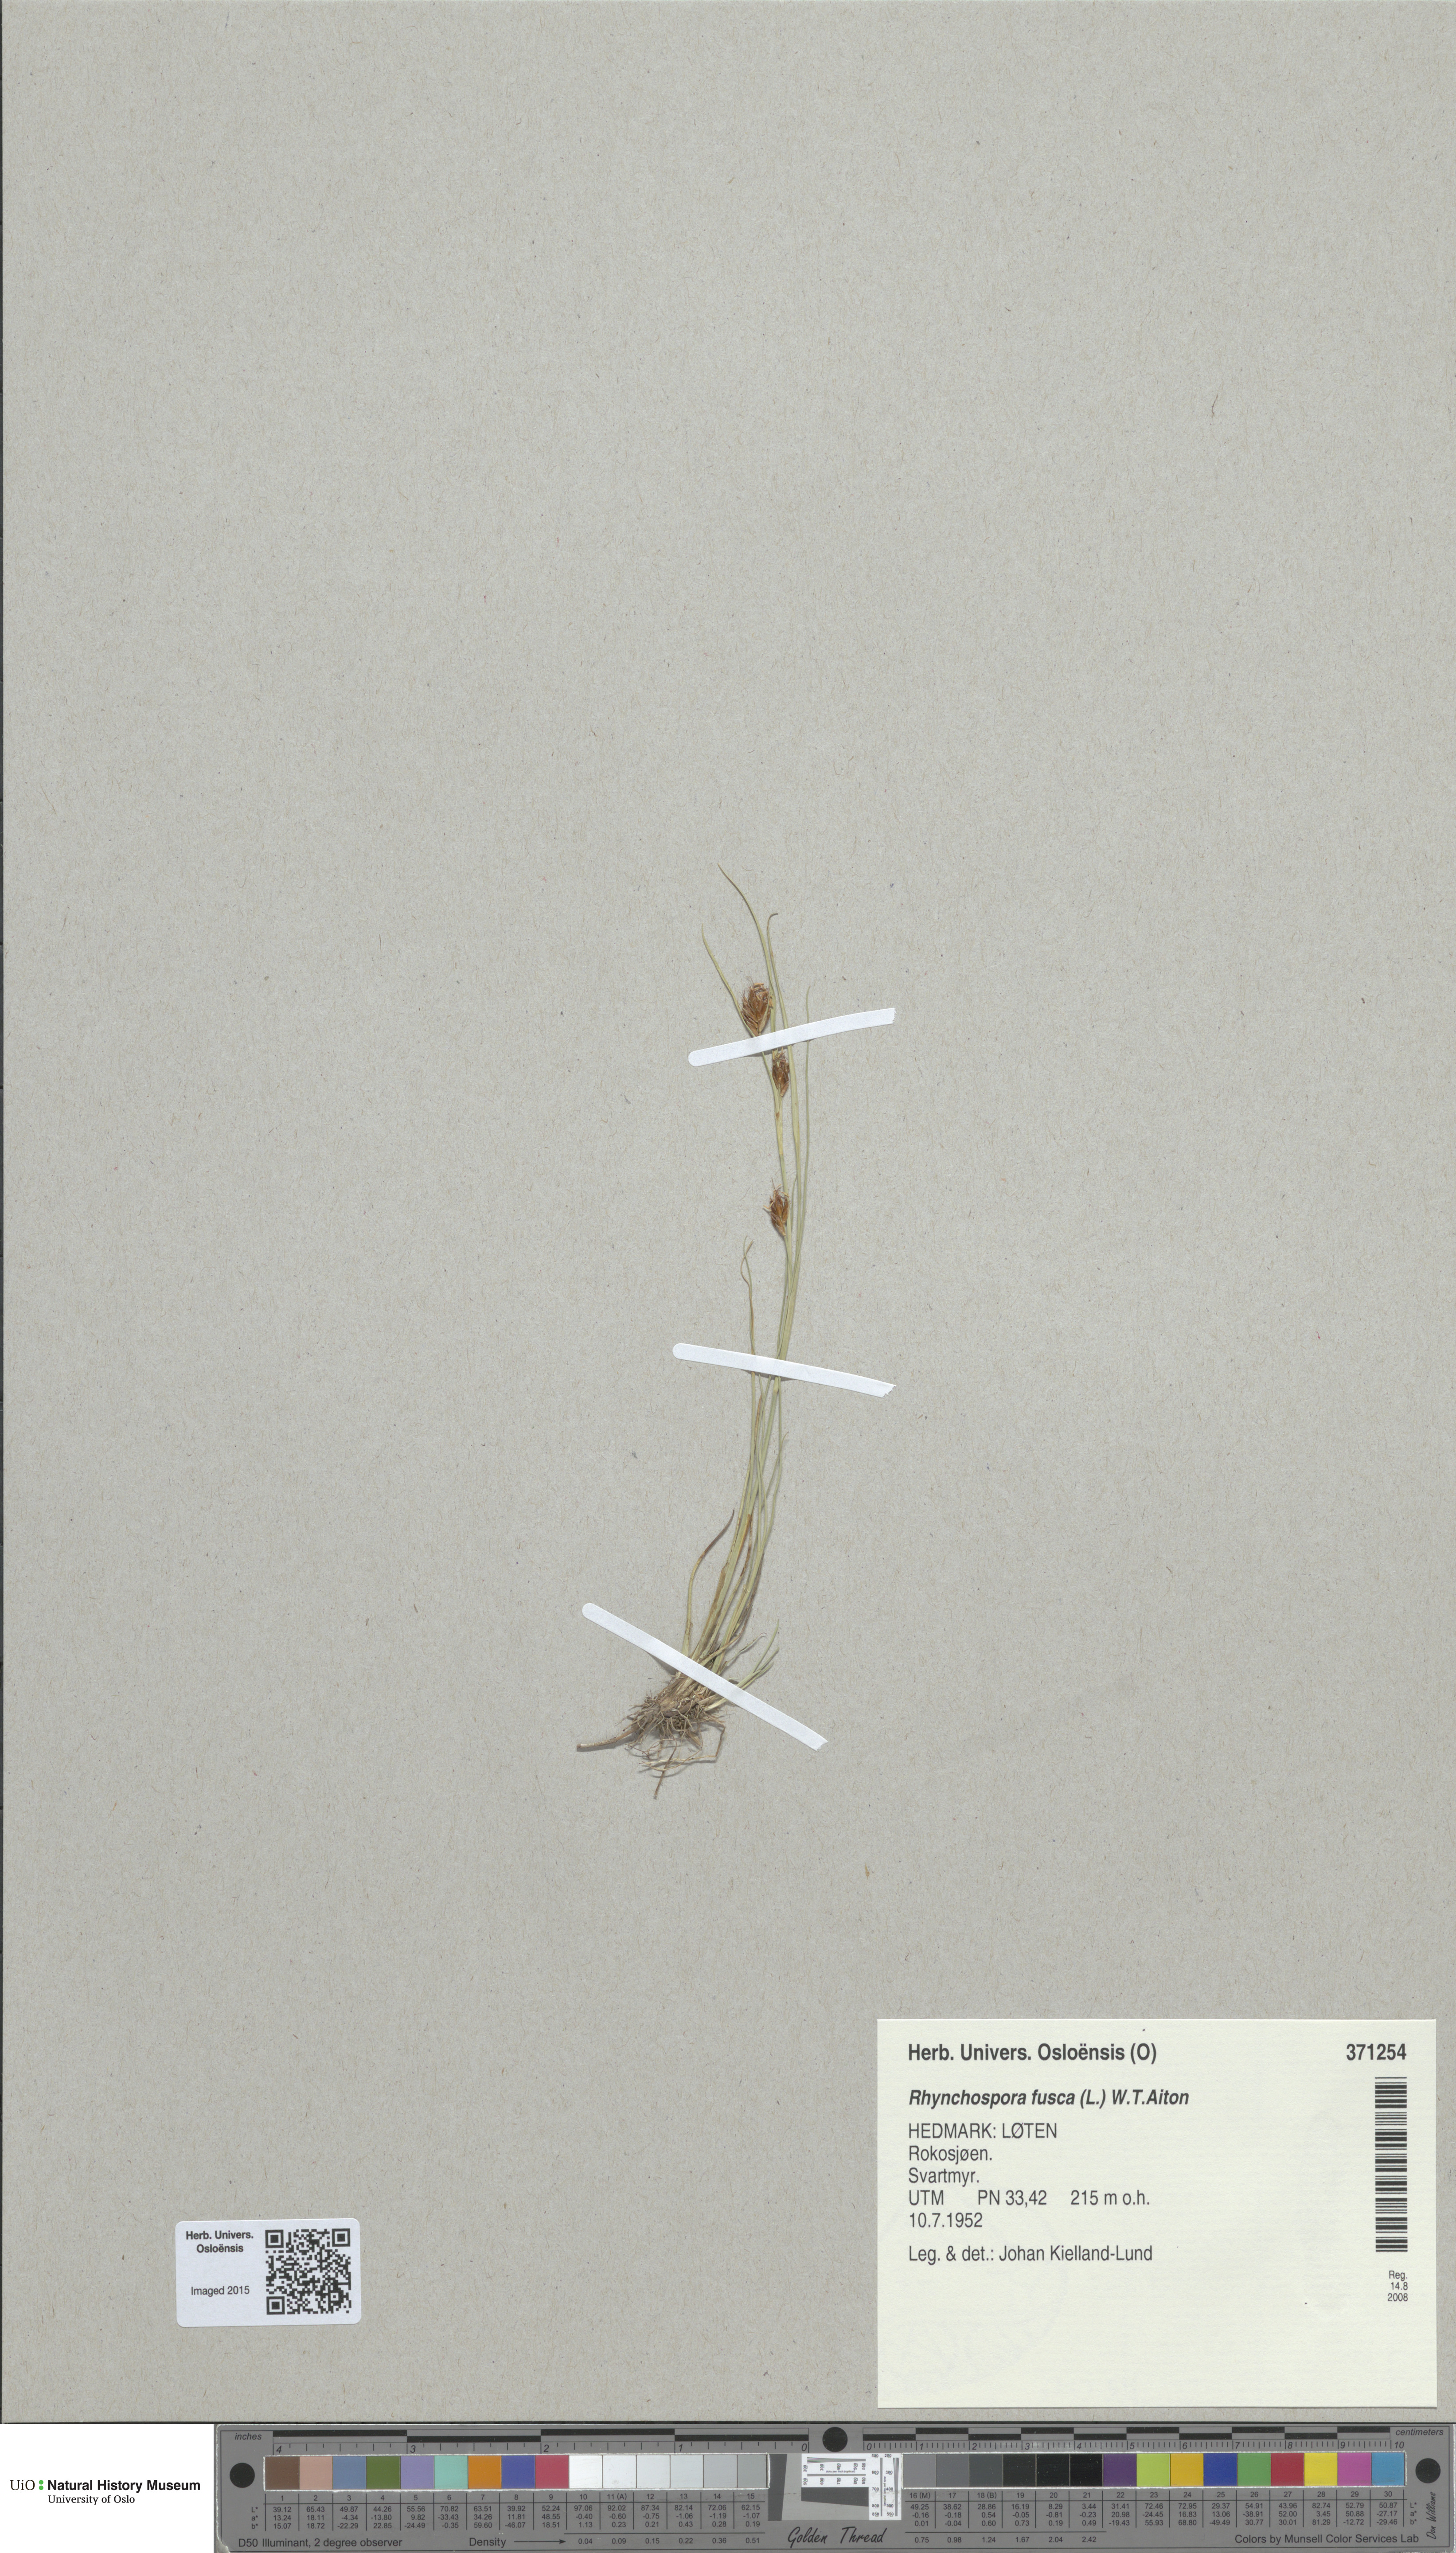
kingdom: Plantae
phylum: Tracheophyta
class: Liliopsida
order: Poales
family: Cyperaceae
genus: Rhynchospora
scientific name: Rhynchospora fusca
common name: Brown beak-sedge
